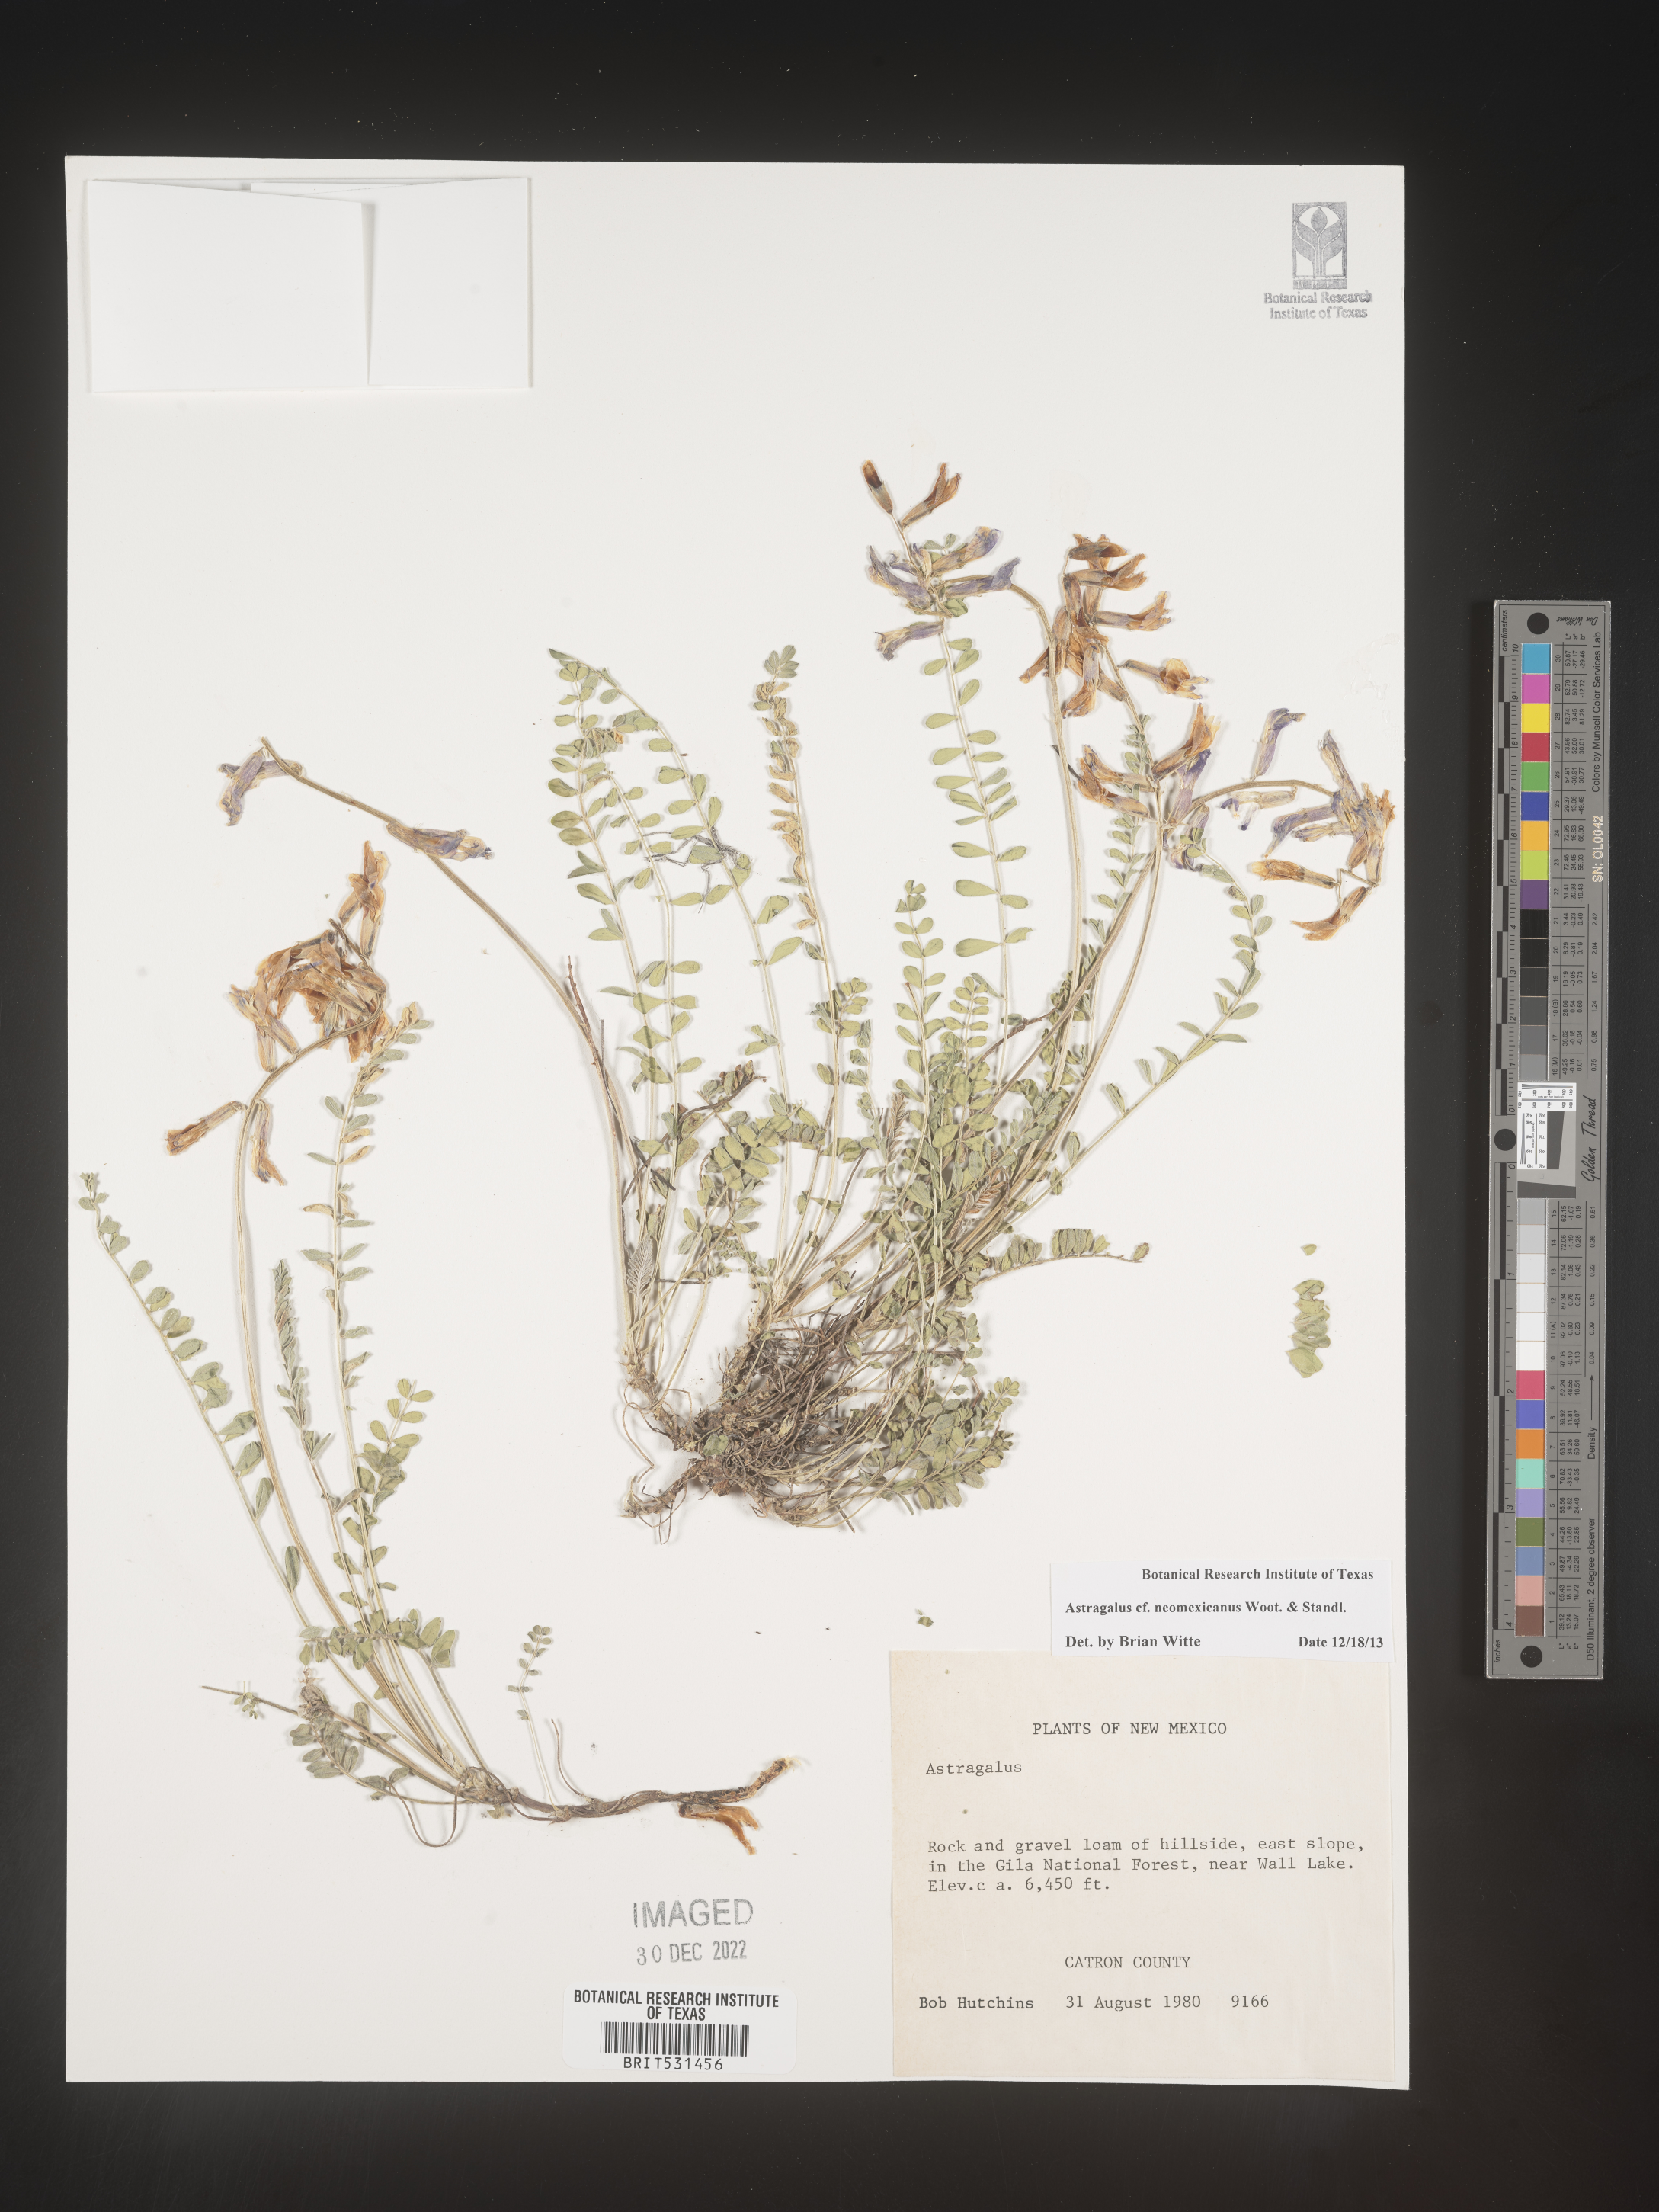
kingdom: Plantae
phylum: Tracheophyta
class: Magnoliopsida
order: Fabales
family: Fabaceae
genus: Astragalus
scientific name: Astragalus
